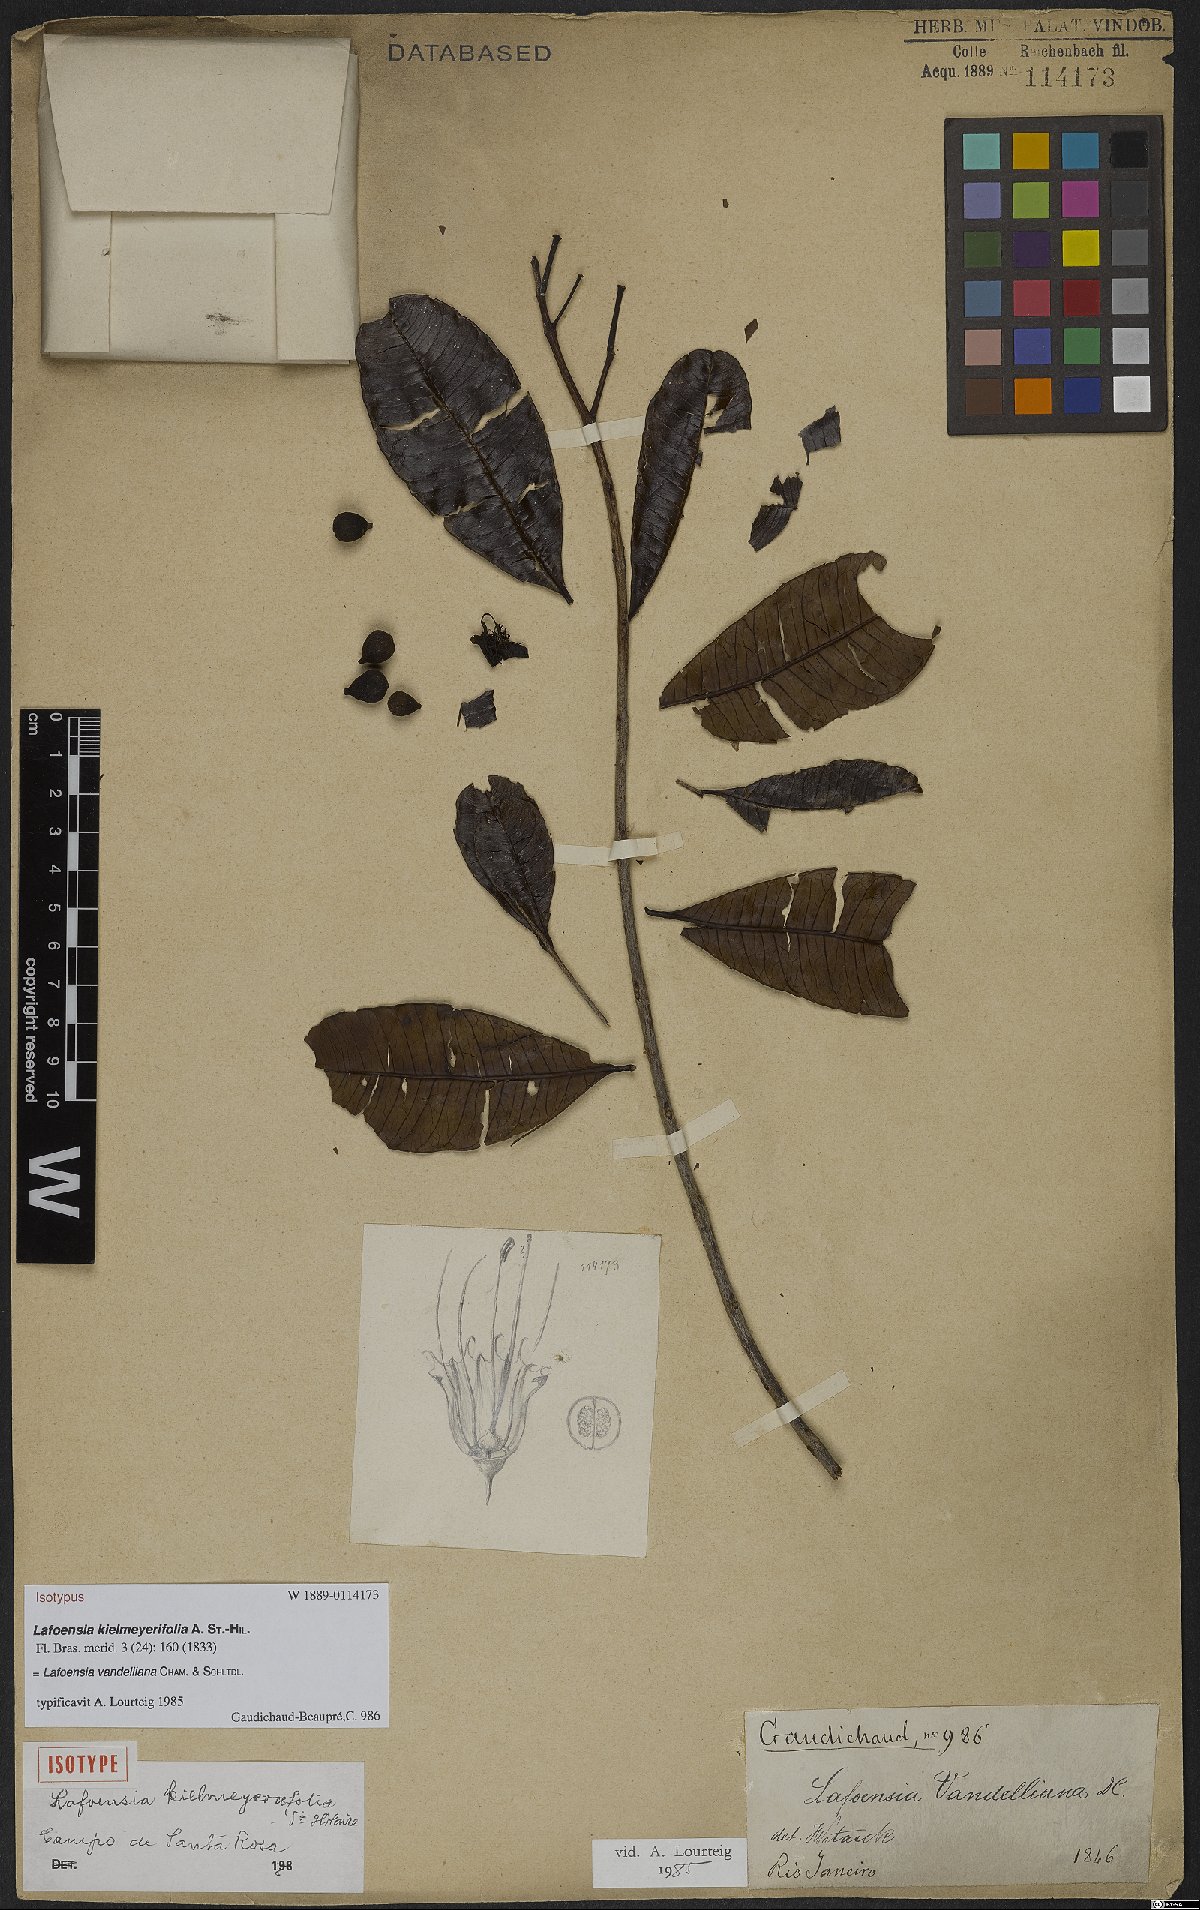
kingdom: Plantae
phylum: Tracheophyta
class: Magnoliopsida
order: Myrtales
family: Lythraceae
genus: Lafoensia
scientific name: Lafoensia vandelliana
